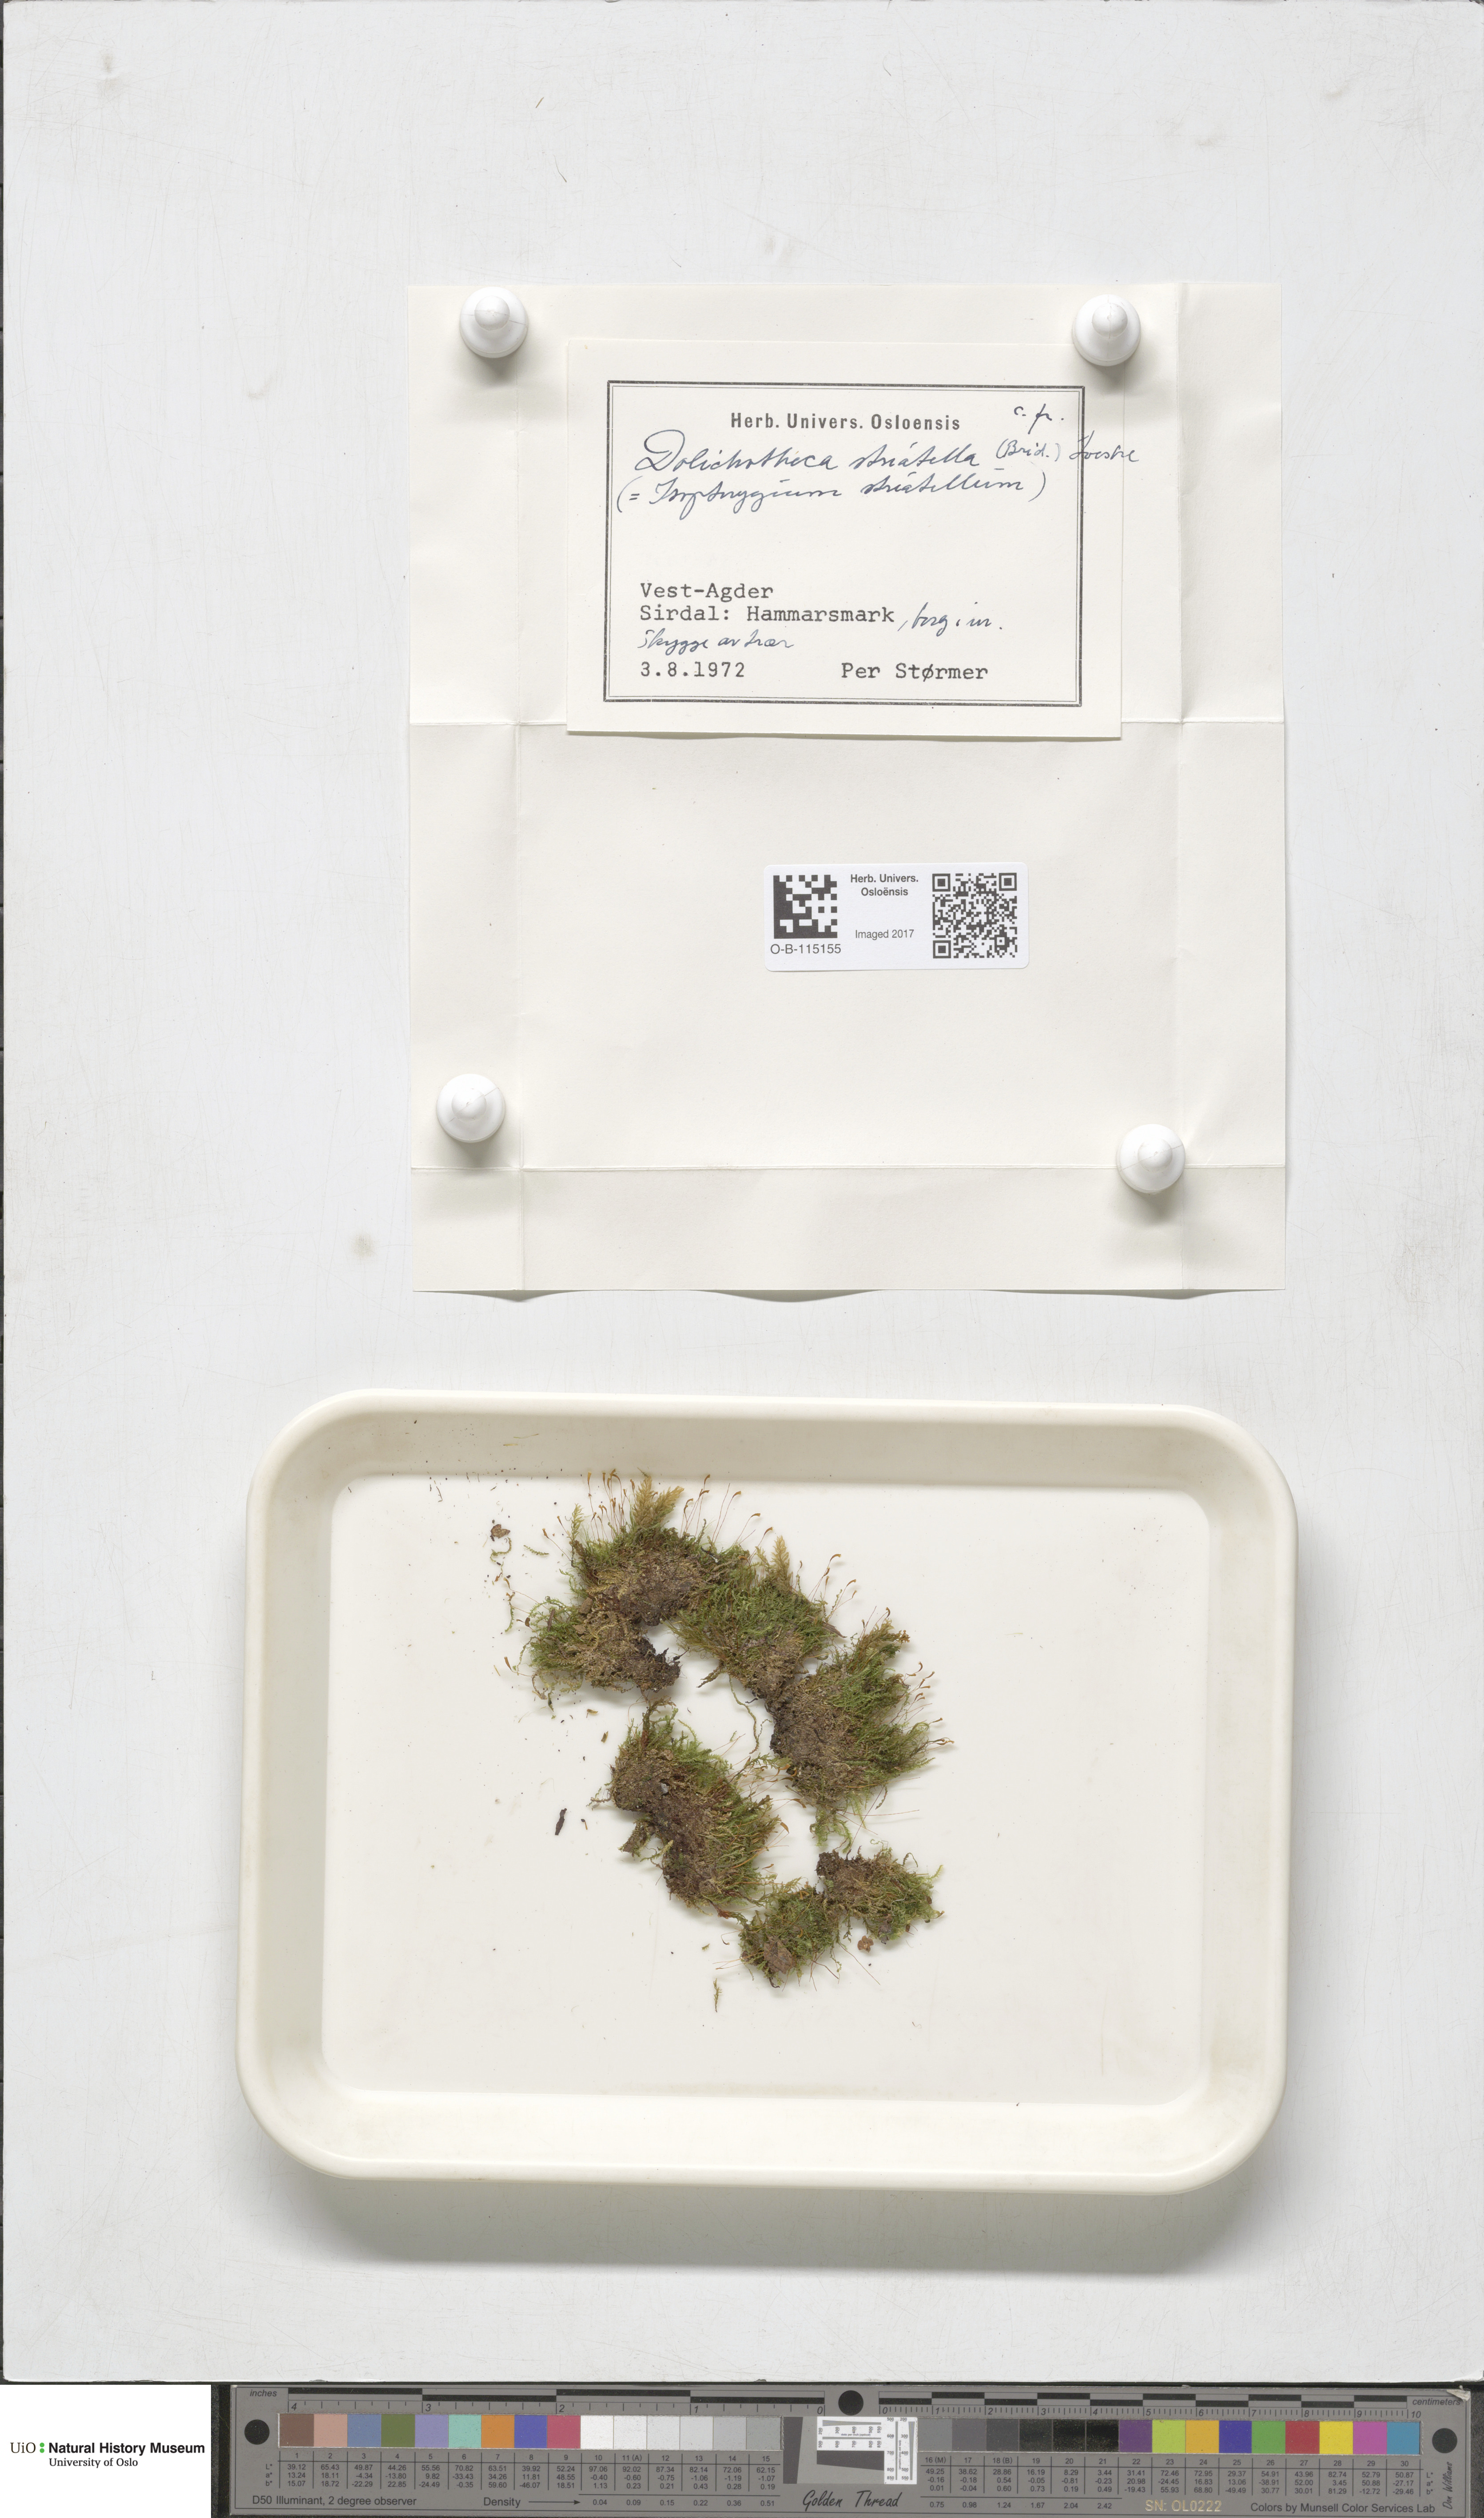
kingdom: Plantae
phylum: Bryophyta
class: Bryopsida
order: Hypnales
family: Plagiotheciaceae
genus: Herzogiella
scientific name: Herzogiella striatella
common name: Muhlenbeck's feather-moss
